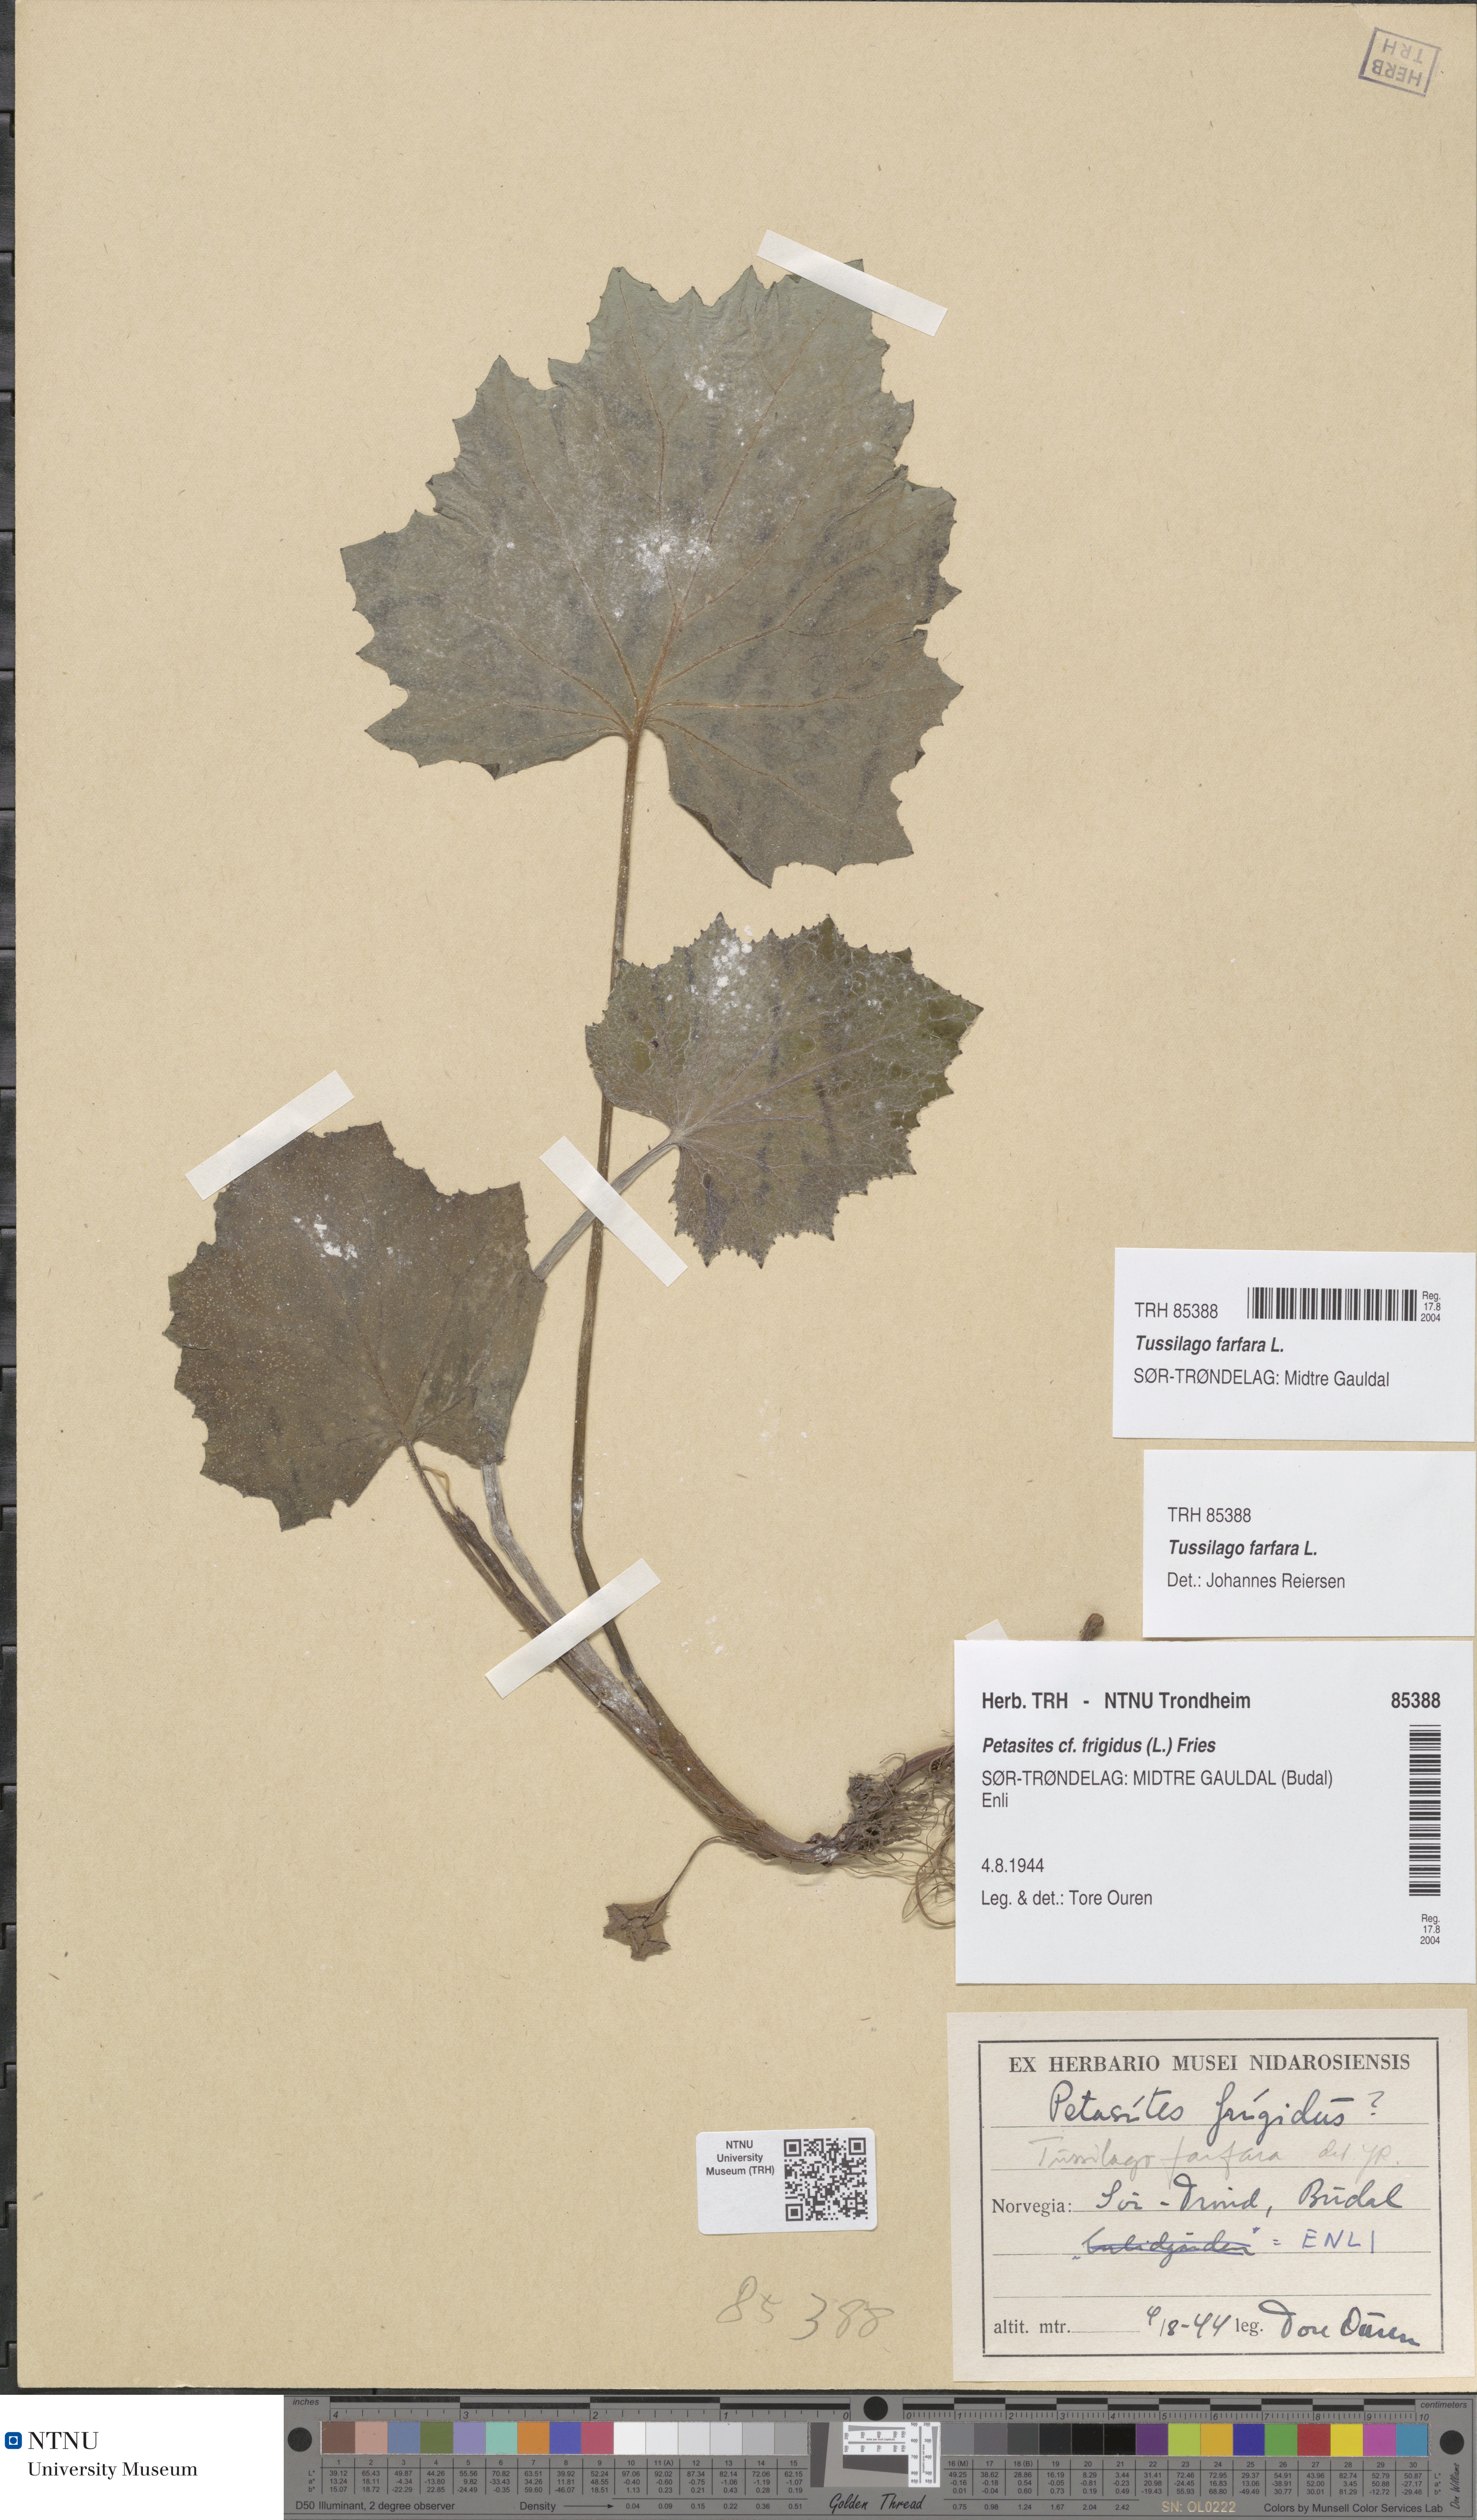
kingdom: Plantae
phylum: Tracheophyta
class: Magnoliopsida
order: Asterales
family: Asteraceae
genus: Tussilago
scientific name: Tussilago farfara
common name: Coltsfoot
